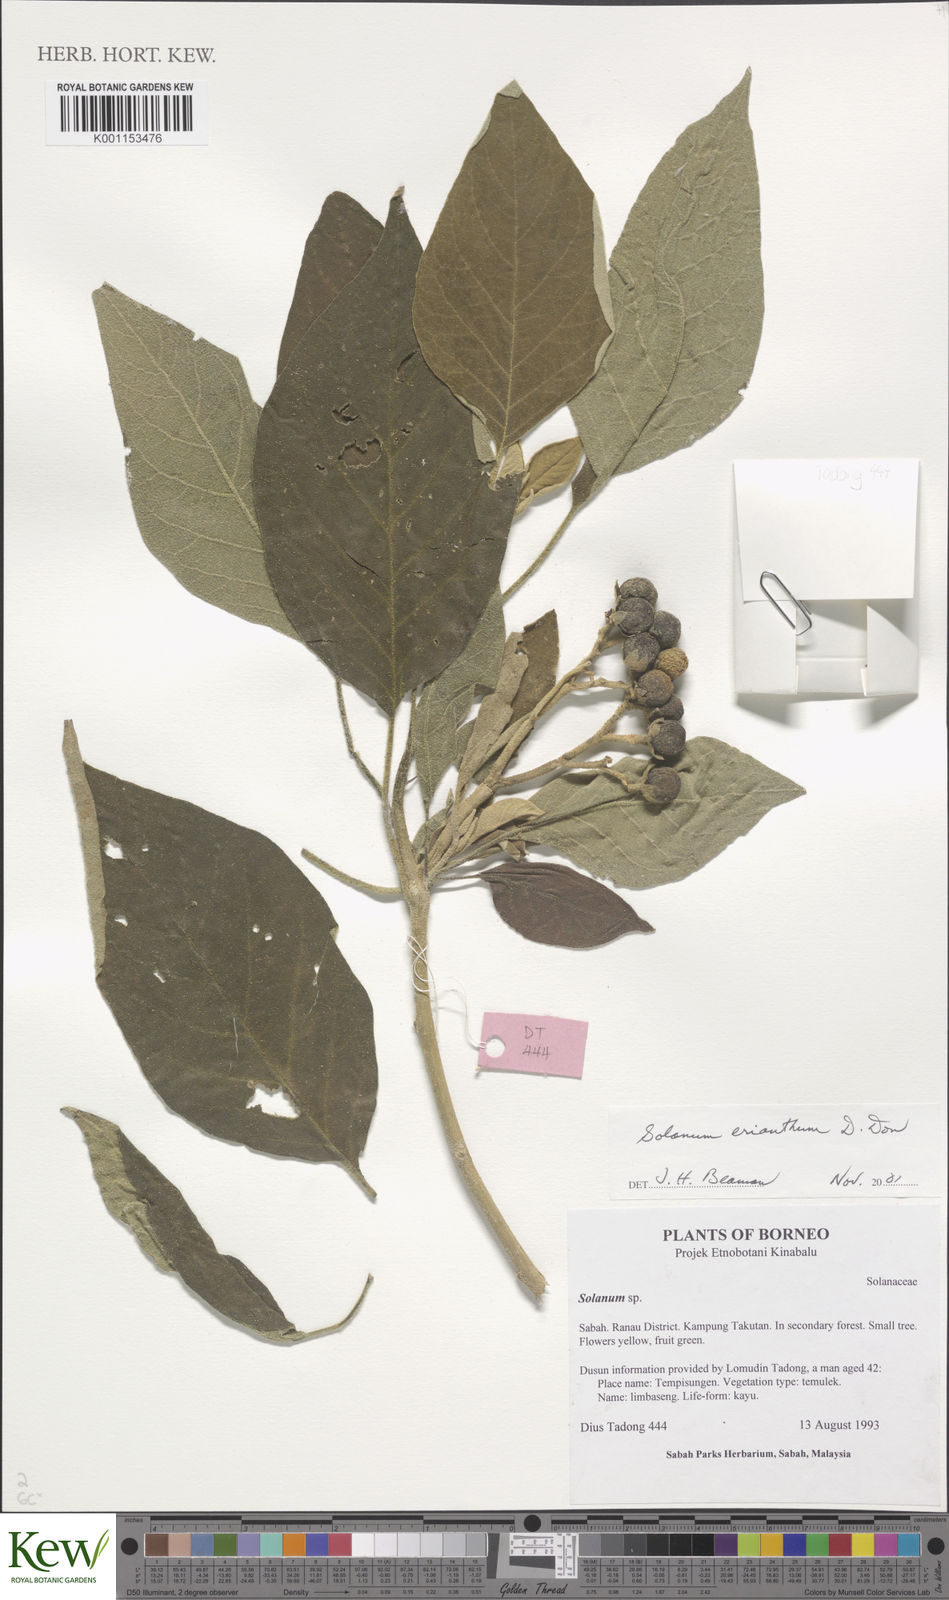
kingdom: Plantae
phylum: Tracheophyta
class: Magnoliopsida
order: Solanales
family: Solanaceae
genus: Solanum
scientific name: Solanum erianthum
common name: Tobacco-tree
